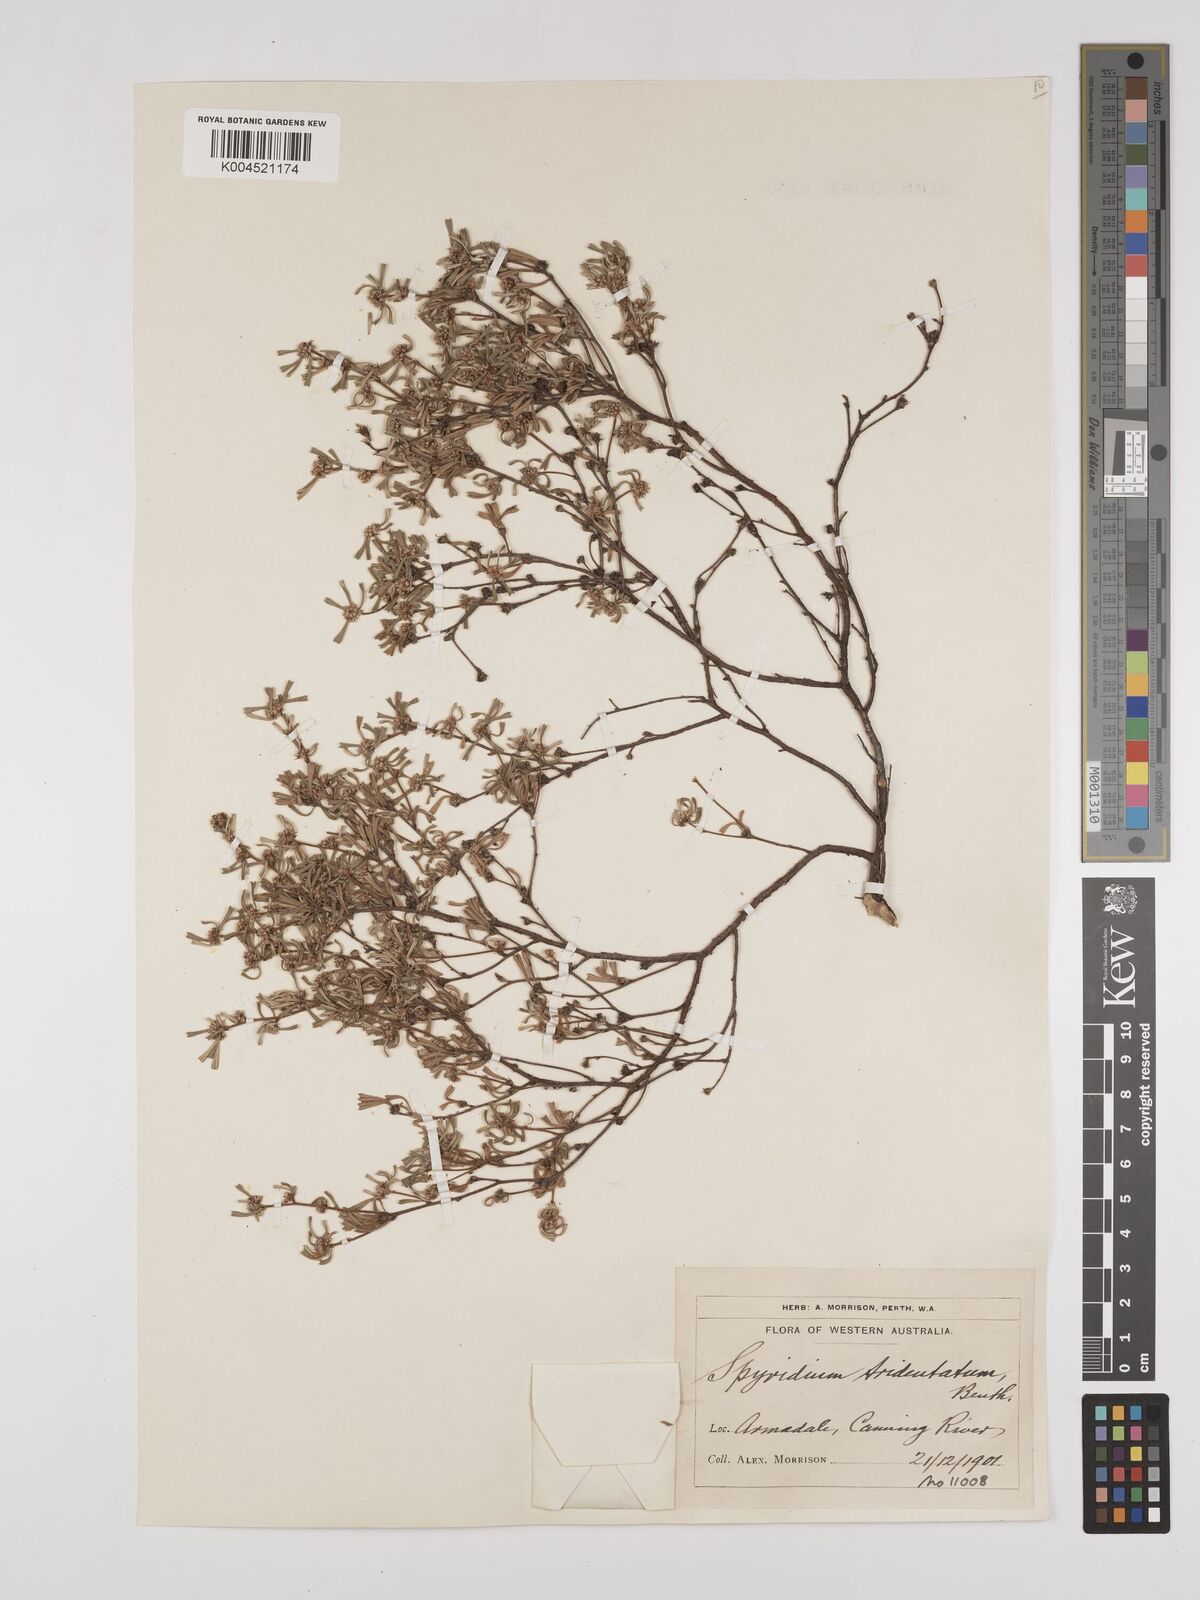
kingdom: Plantae
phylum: Tracheophyta
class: Magnoliopsida
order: Rosales
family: Rhamnaceae
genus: Stenanthemum
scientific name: Stenanthemum tridentatum
